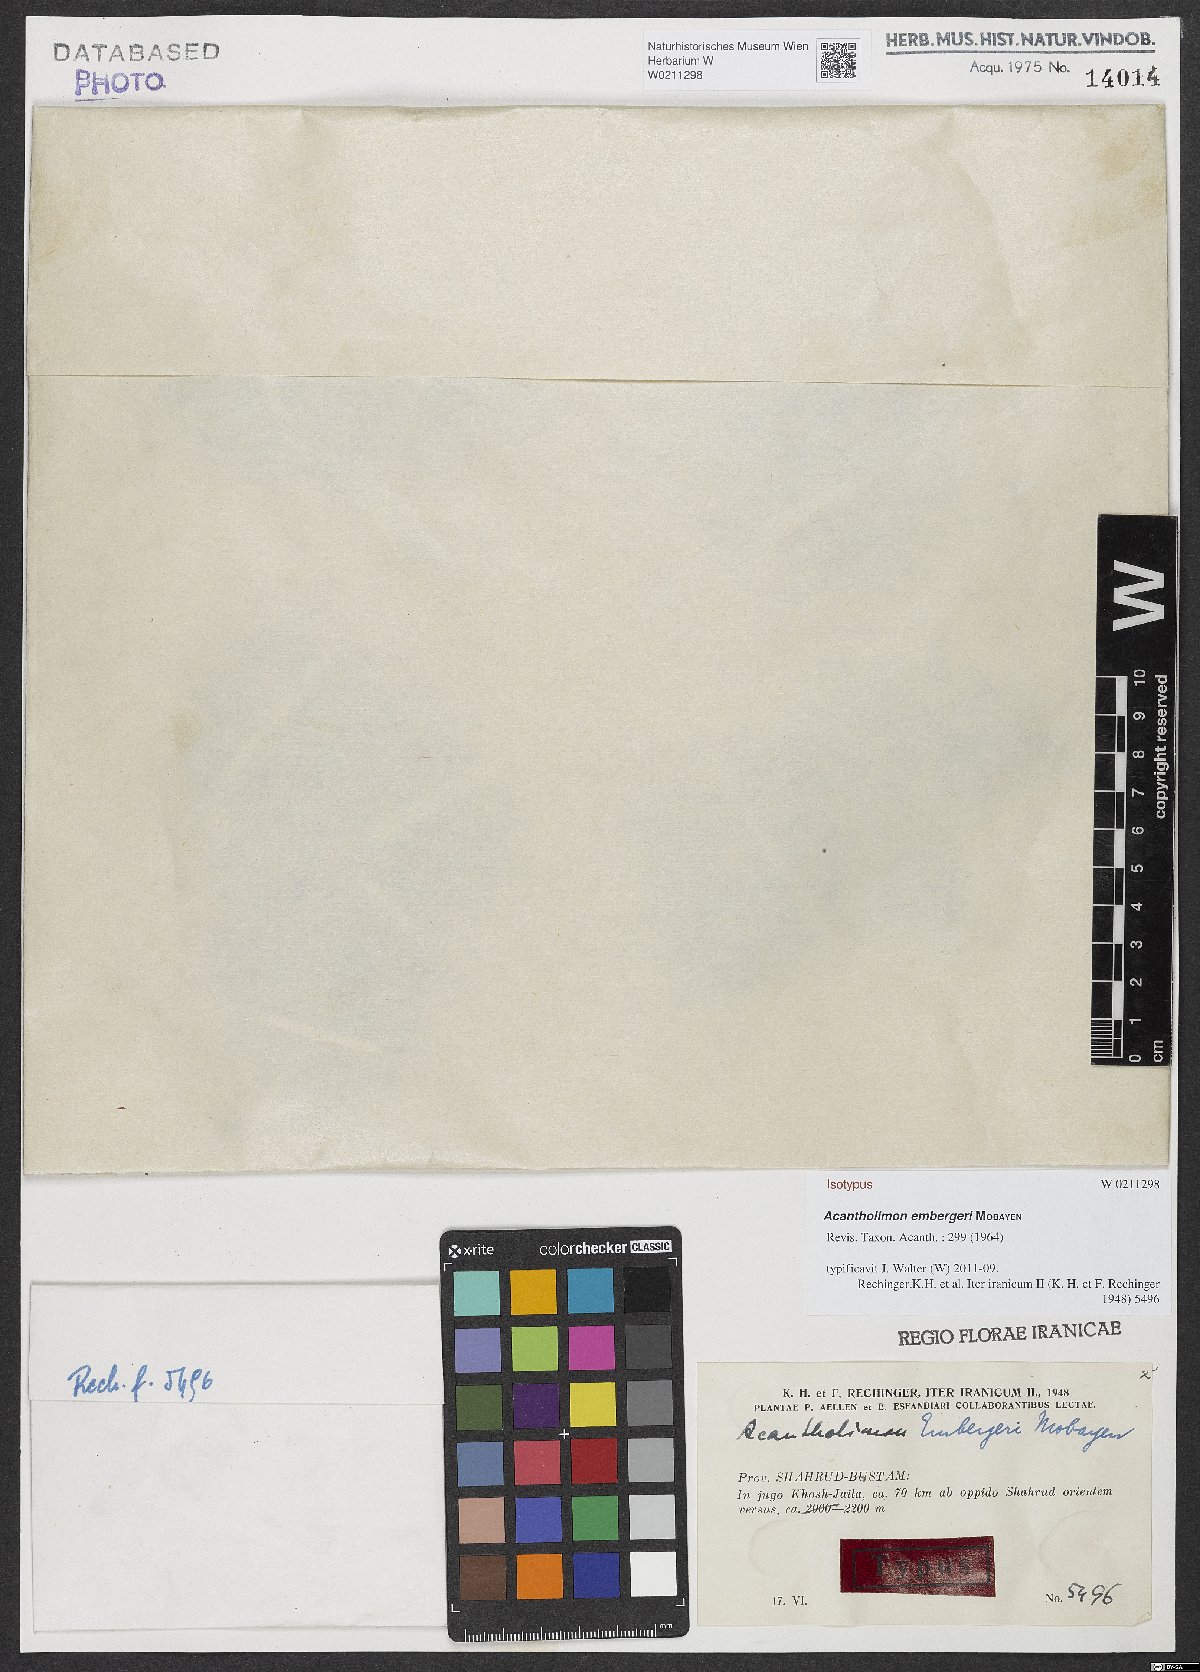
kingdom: Plantae
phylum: Tracheophyta
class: Magnoliopsida
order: Caryophyllales
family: Plumbaginaceae
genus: Acantholimon
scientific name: Acantholimon embergeri
